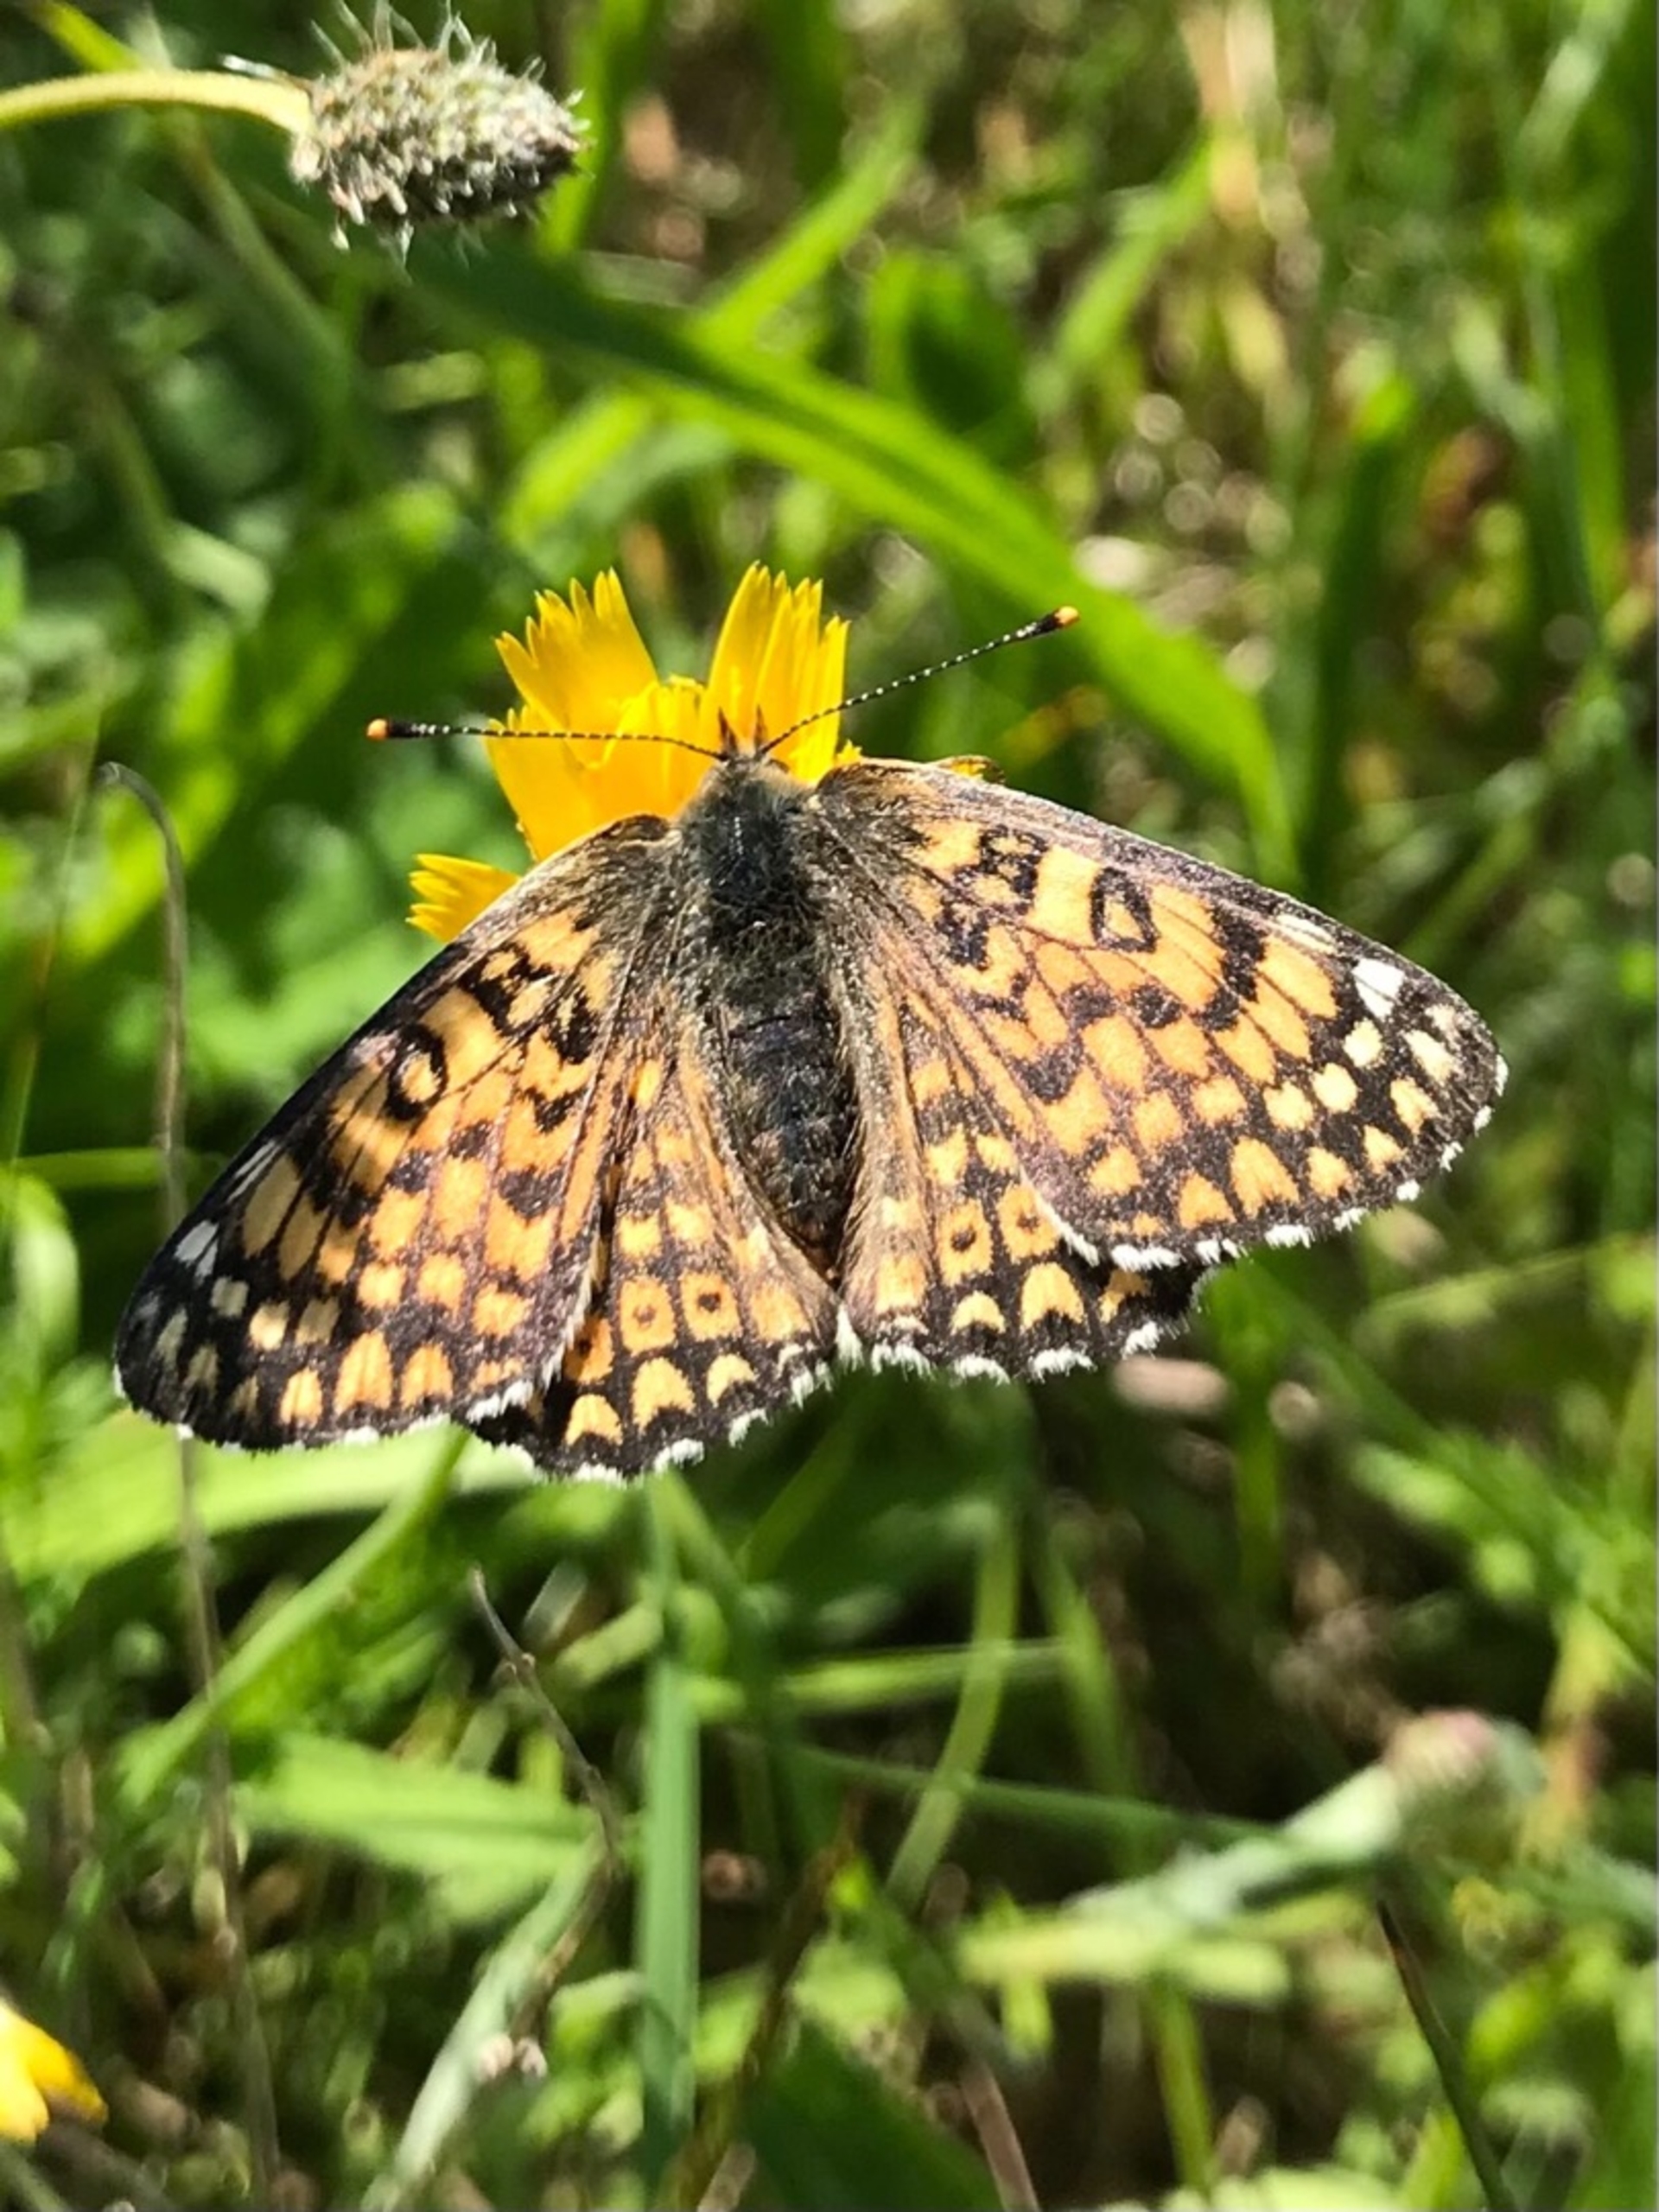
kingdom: Animalia
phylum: Arthropoda
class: Insecta
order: Lepidoptera
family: Nymphalidae
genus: Melitaea
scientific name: Melitaea cinxia
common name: Okkergul pletvinge
